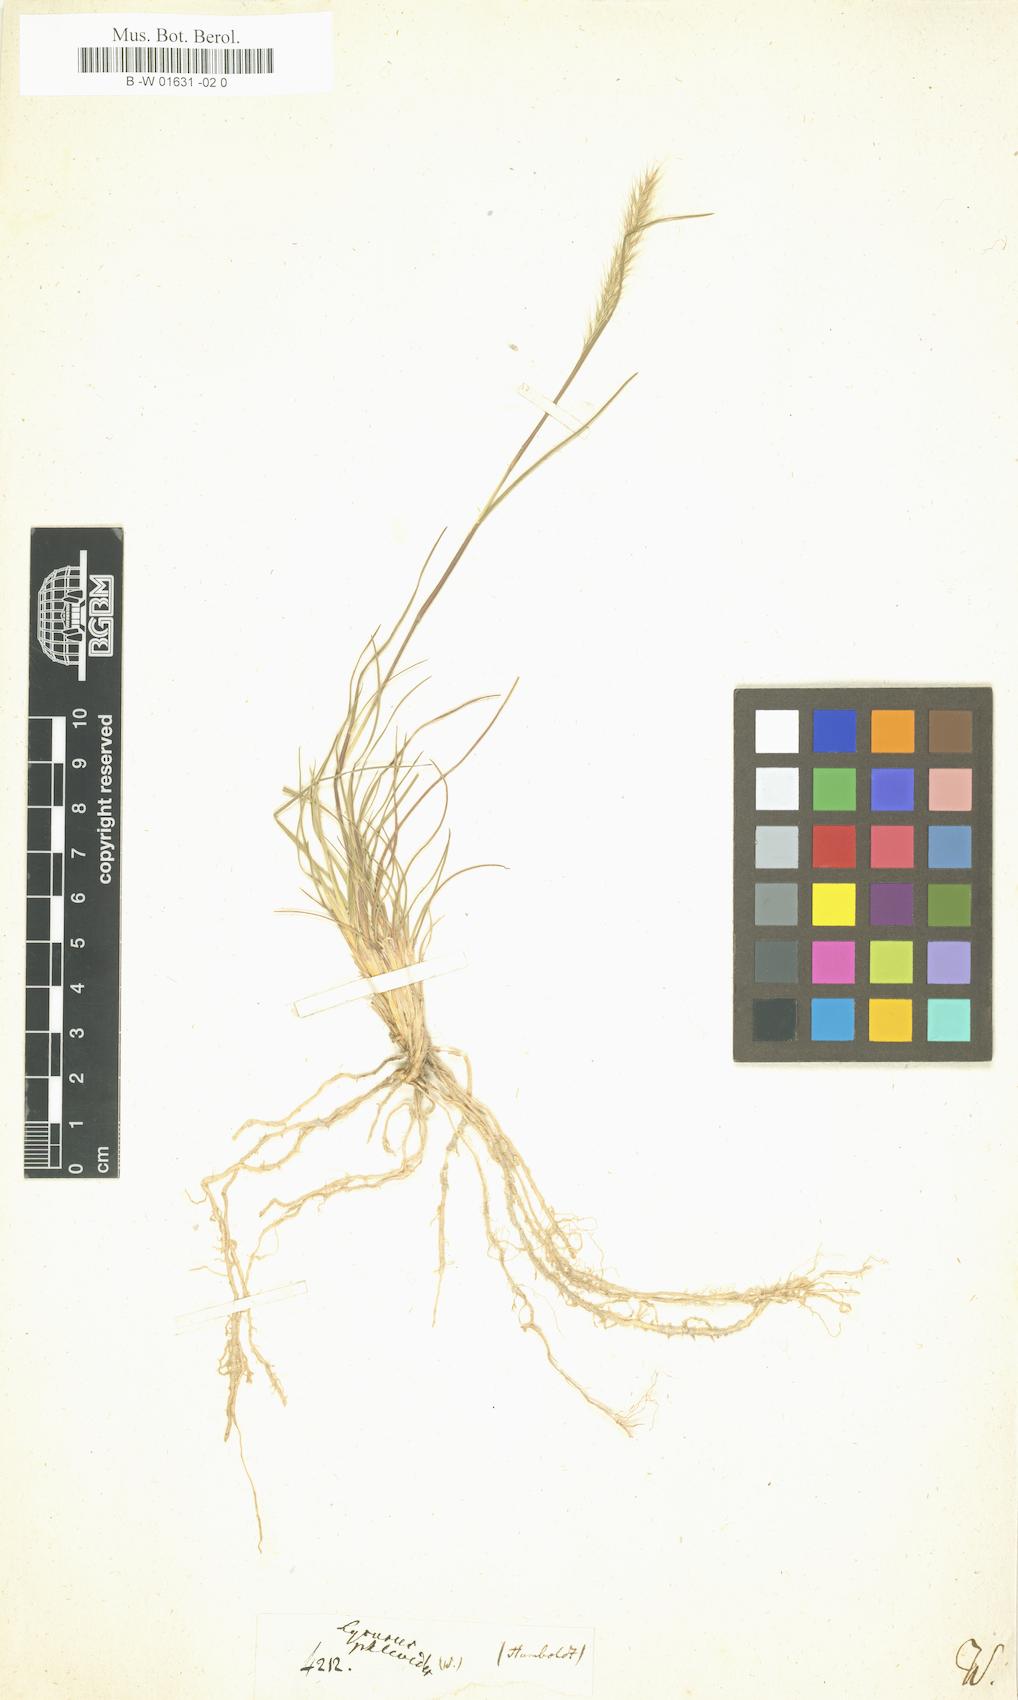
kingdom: Plantae
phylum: Tracheophyta
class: Liliopsida
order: Poales
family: Poaceae
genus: Muhlenbergia
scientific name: Muhlenbergia phleoides
